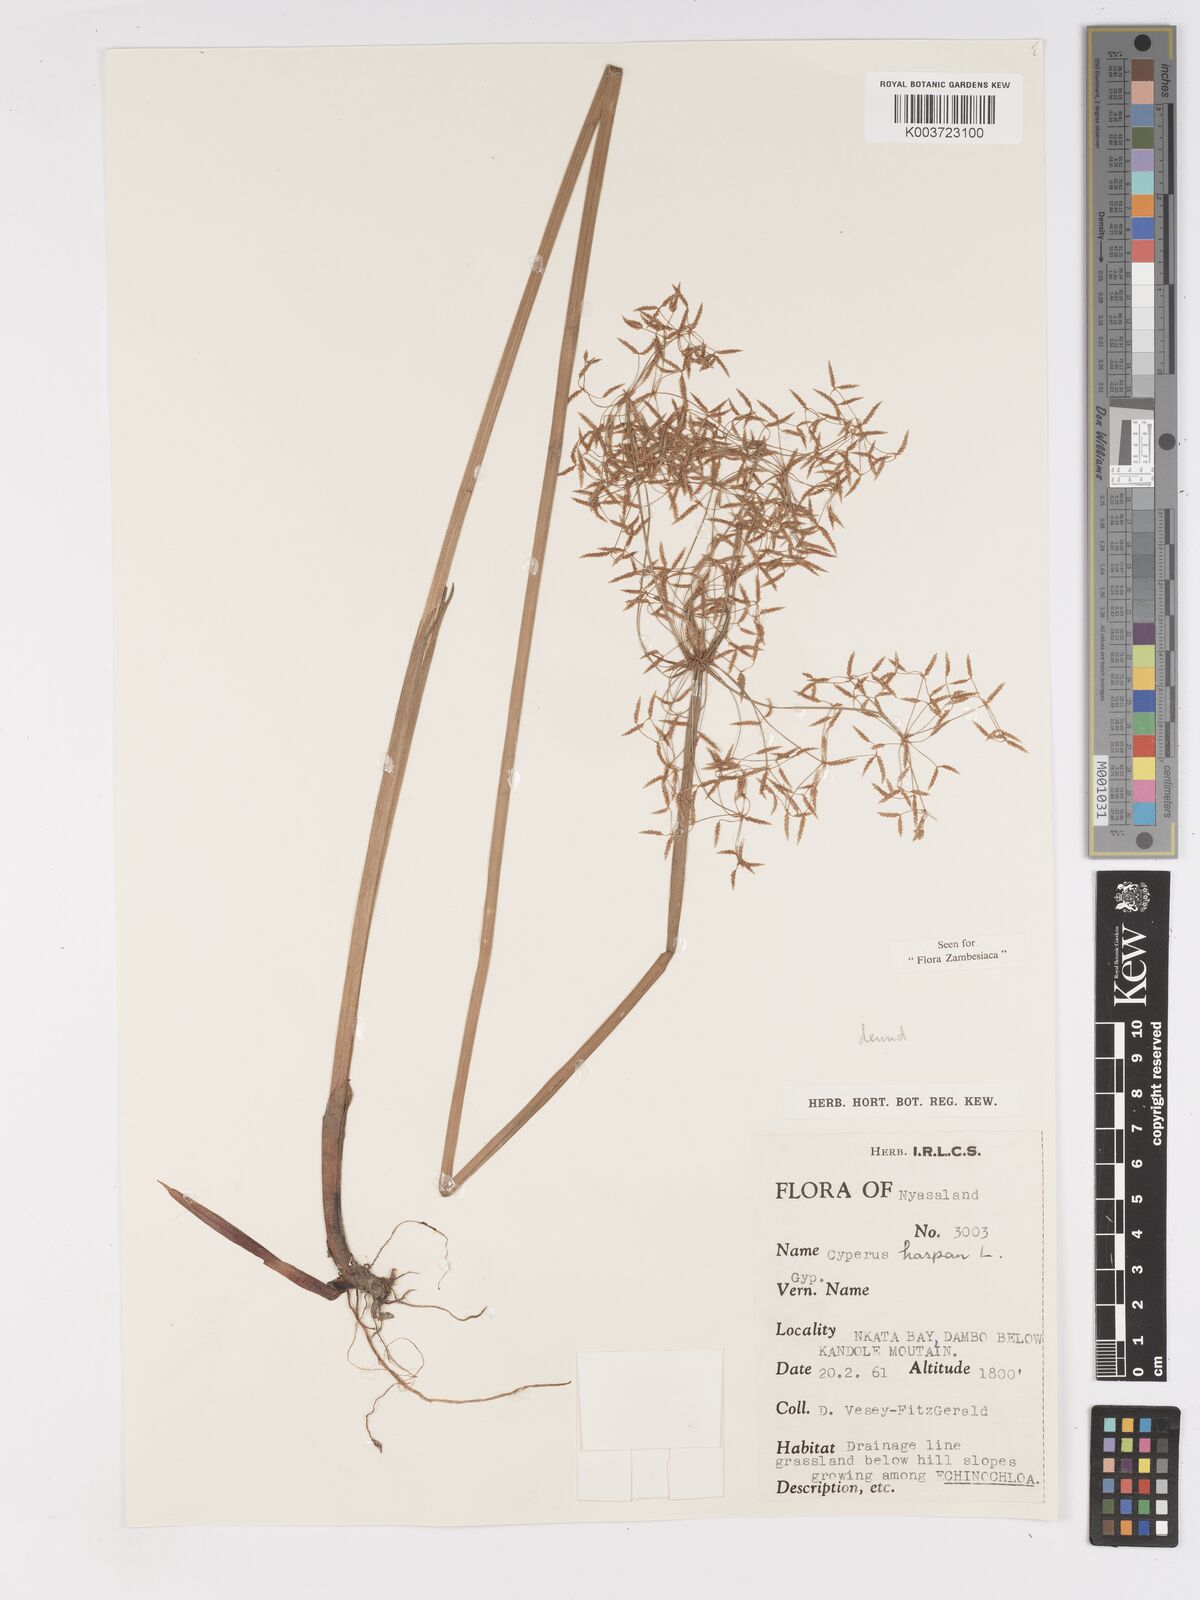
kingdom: Plantae
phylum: Tracheophyta
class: Liliopsida
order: Poales
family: Cyperaceae
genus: Cyperus
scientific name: Cyperus haspan
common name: Haspan flatsedge
